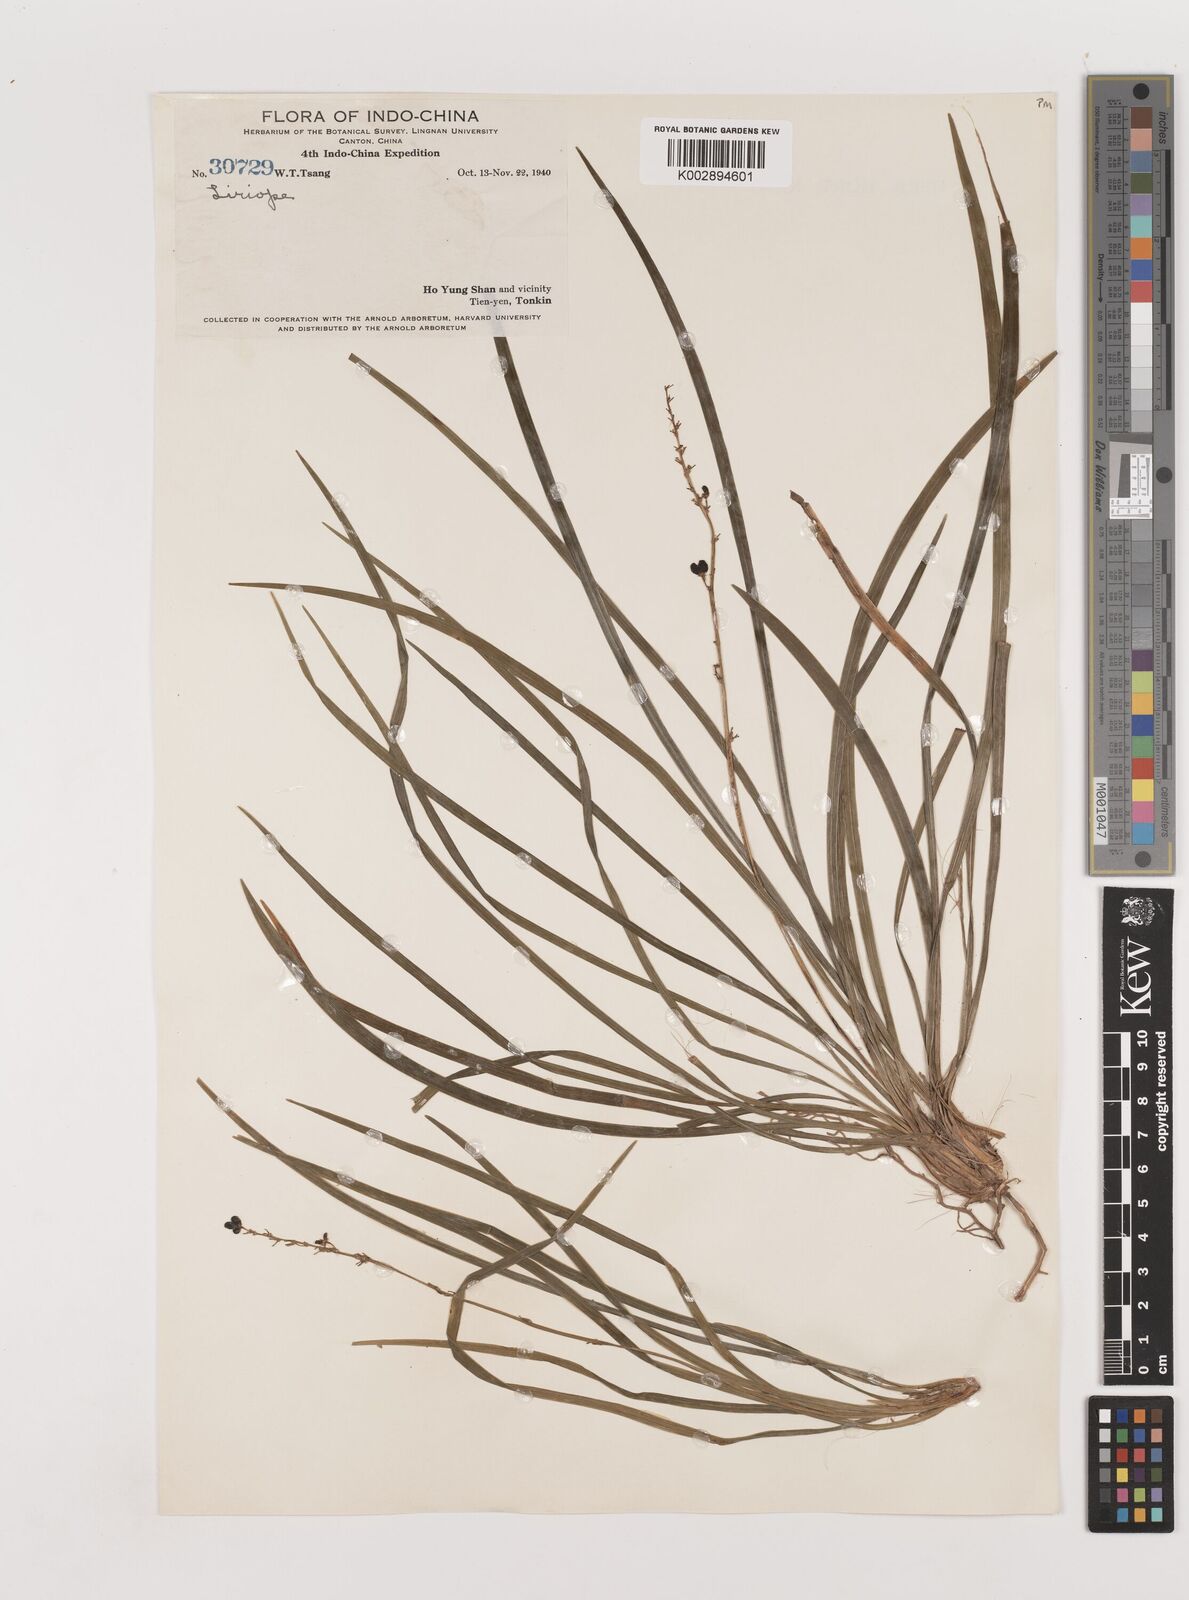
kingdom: Plantae
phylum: Tracheophyta
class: Liliopsida
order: Asparagales
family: Asparagaceae
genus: Liriope
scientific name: Liriope
